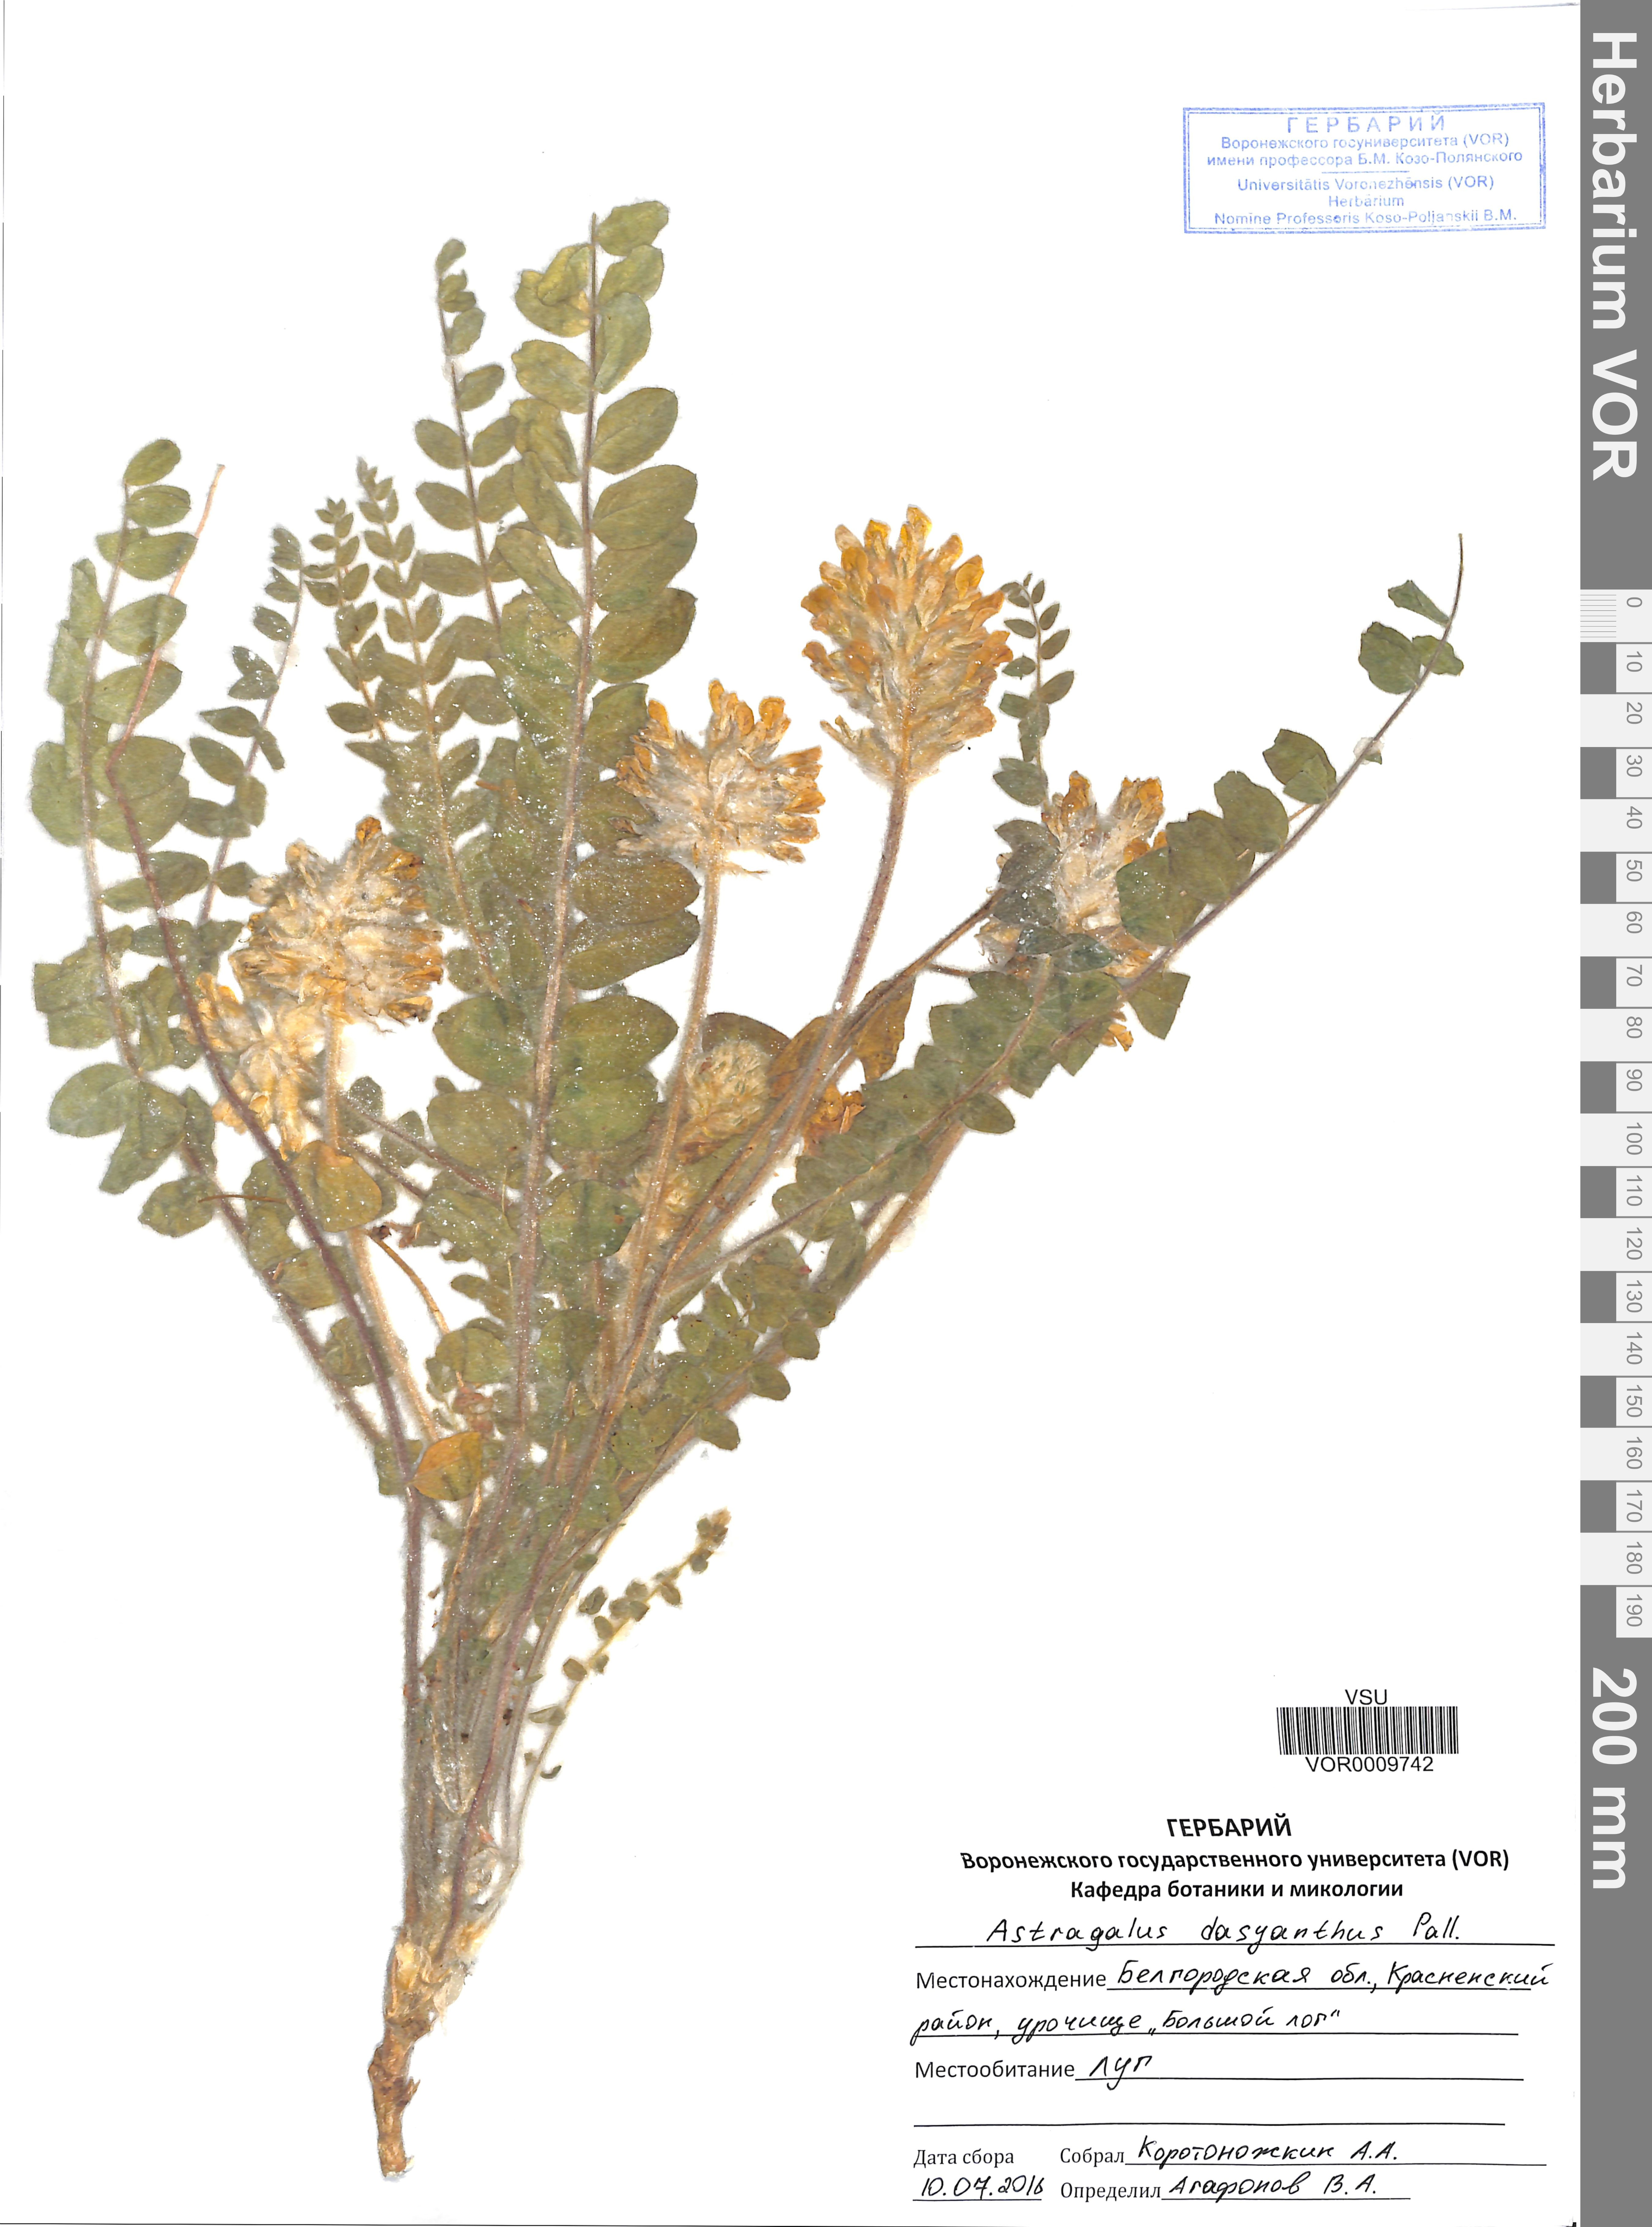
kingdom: Plantae
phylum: Tracheophyta
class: Magnoliopsida
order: Fabales
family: Fabaceae
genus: Astragalus
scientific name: Astragalus dasyanthus
